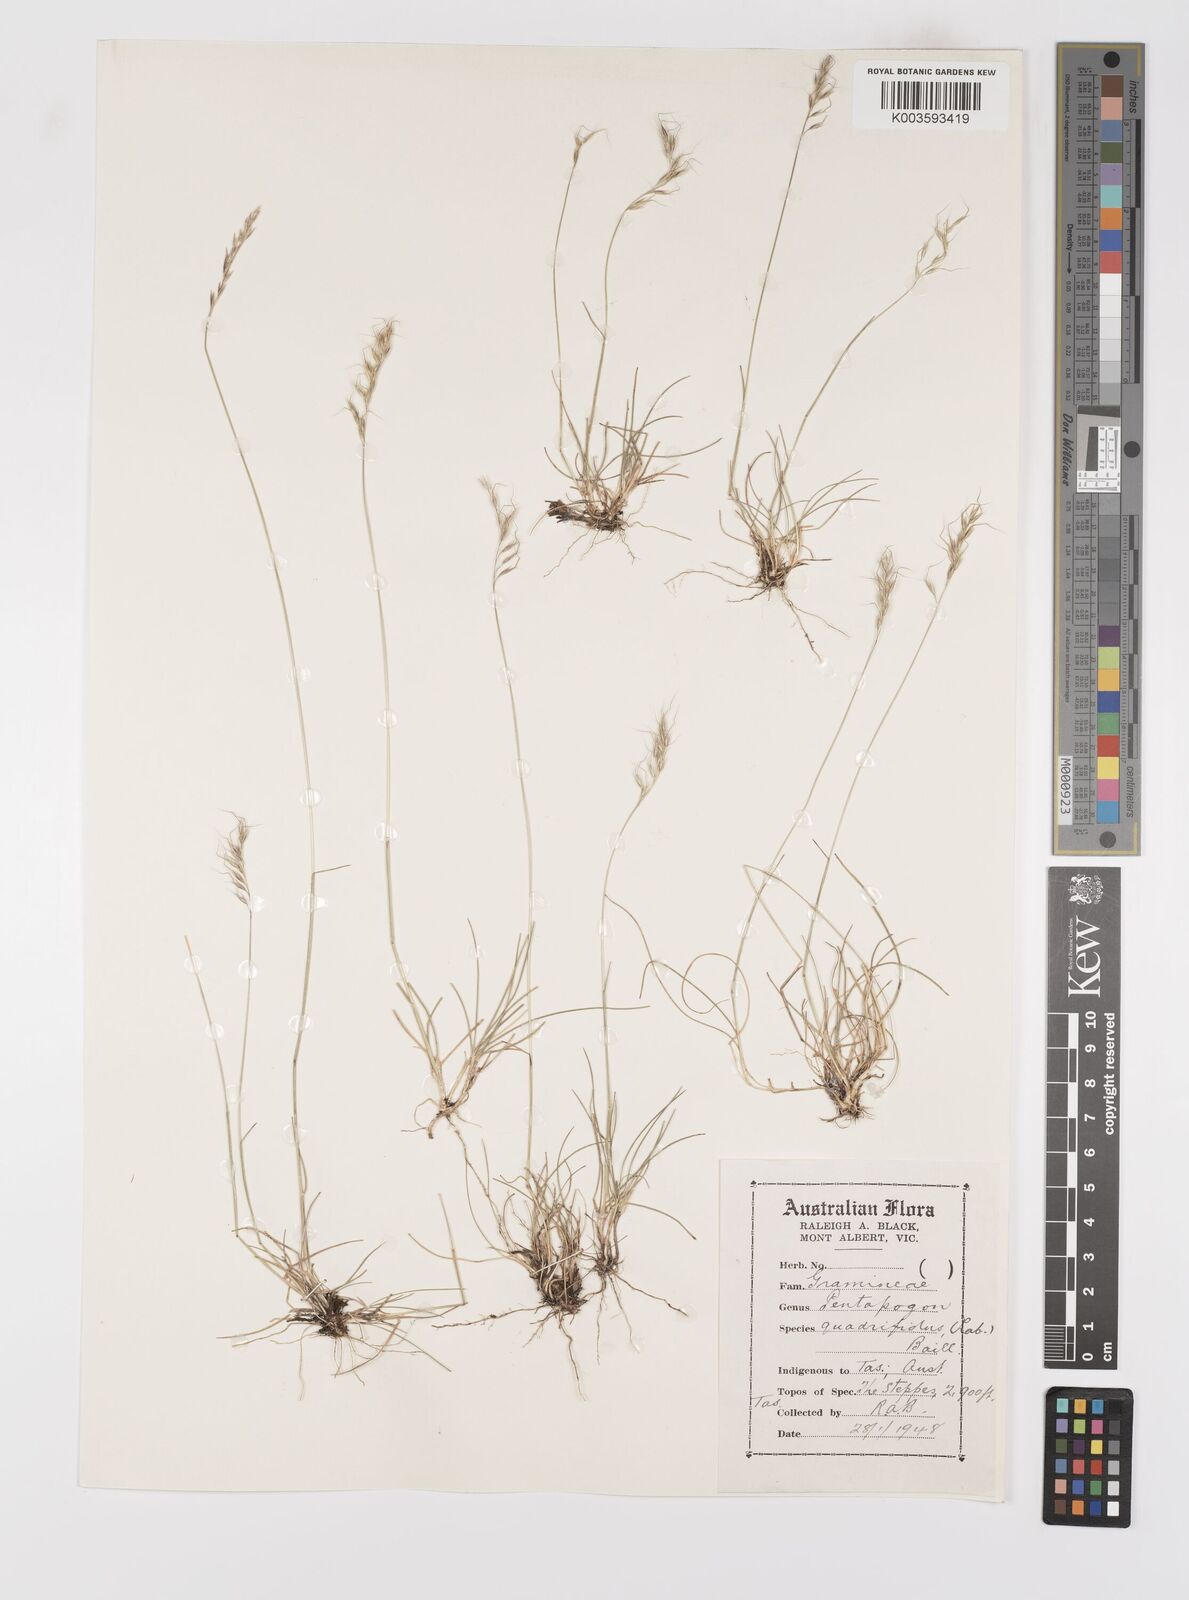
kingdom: Plantae
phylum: Tracheophyta
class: Liliopsida
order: Poales
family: Poaceae
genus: Pentapogon
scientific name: Pentapogon quadrifidus
